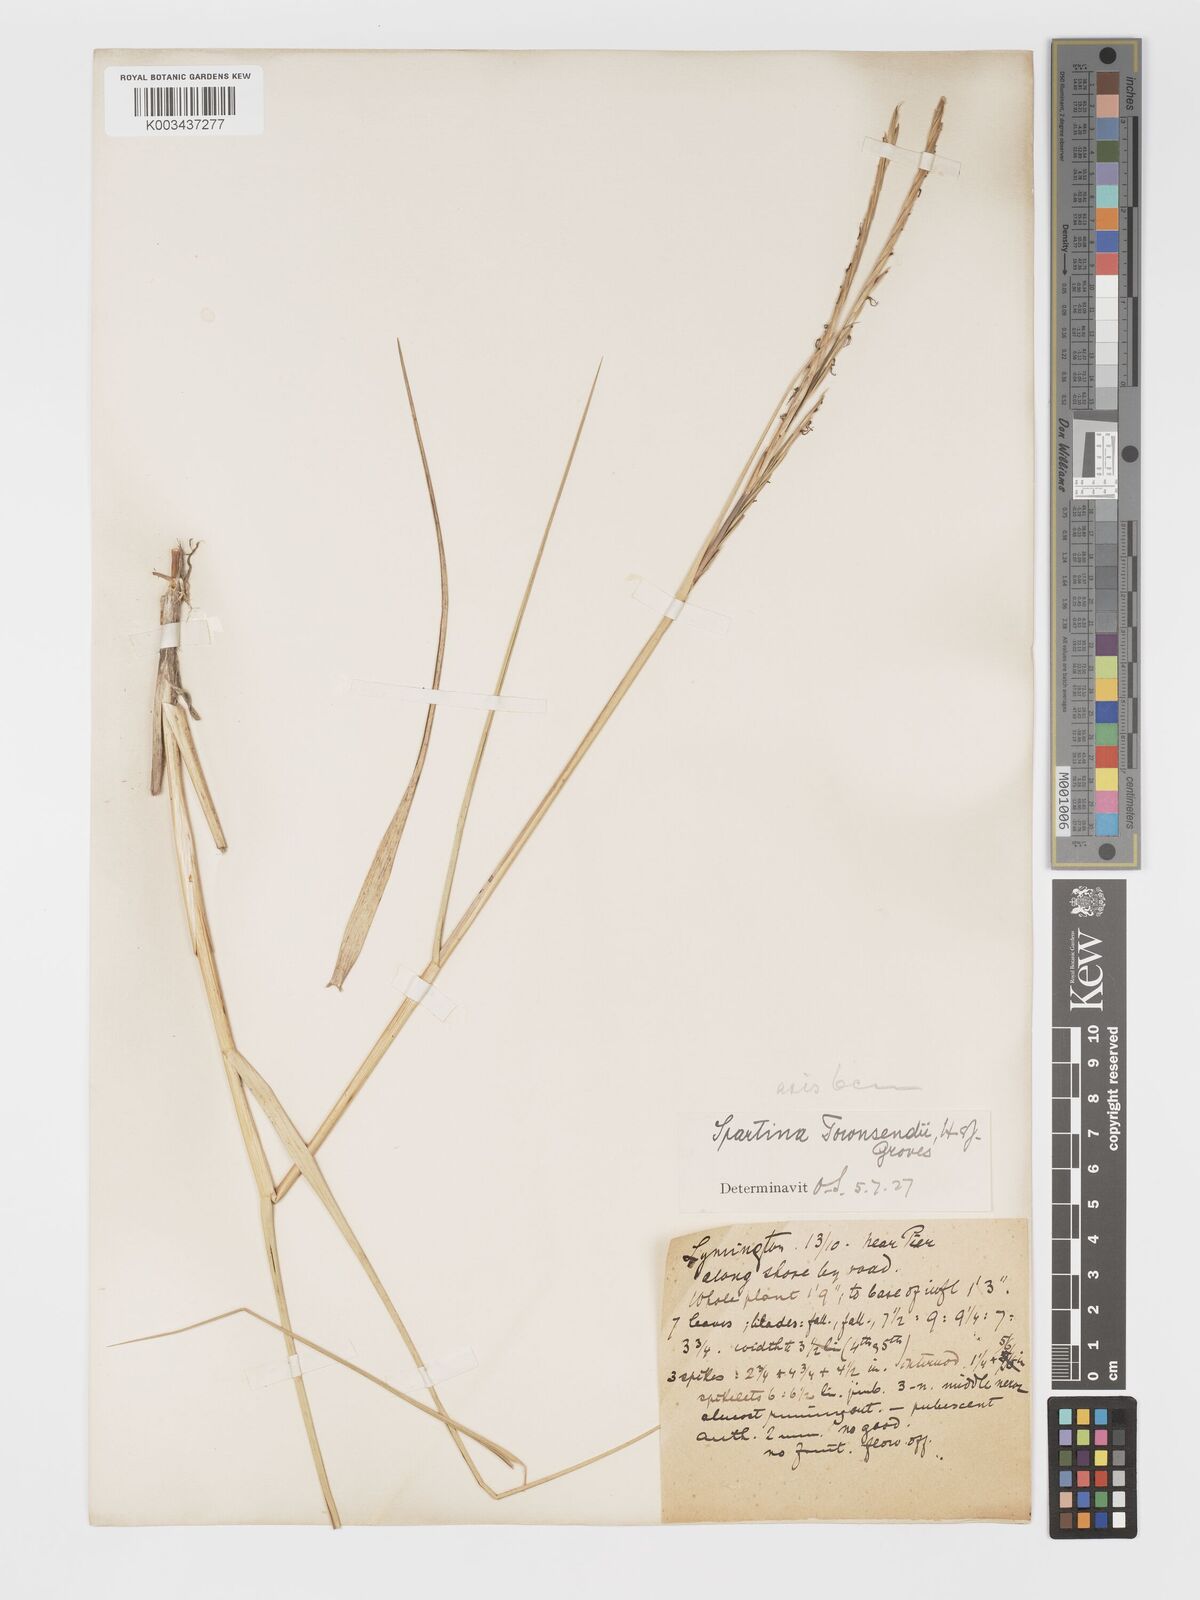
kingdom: Plantae
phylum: Tracheophyta
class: Liliopsida
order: Poales
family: Poaceae
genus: Sporobolus
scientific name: Sporobolus townsendii
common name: Townsend's cordgrass
